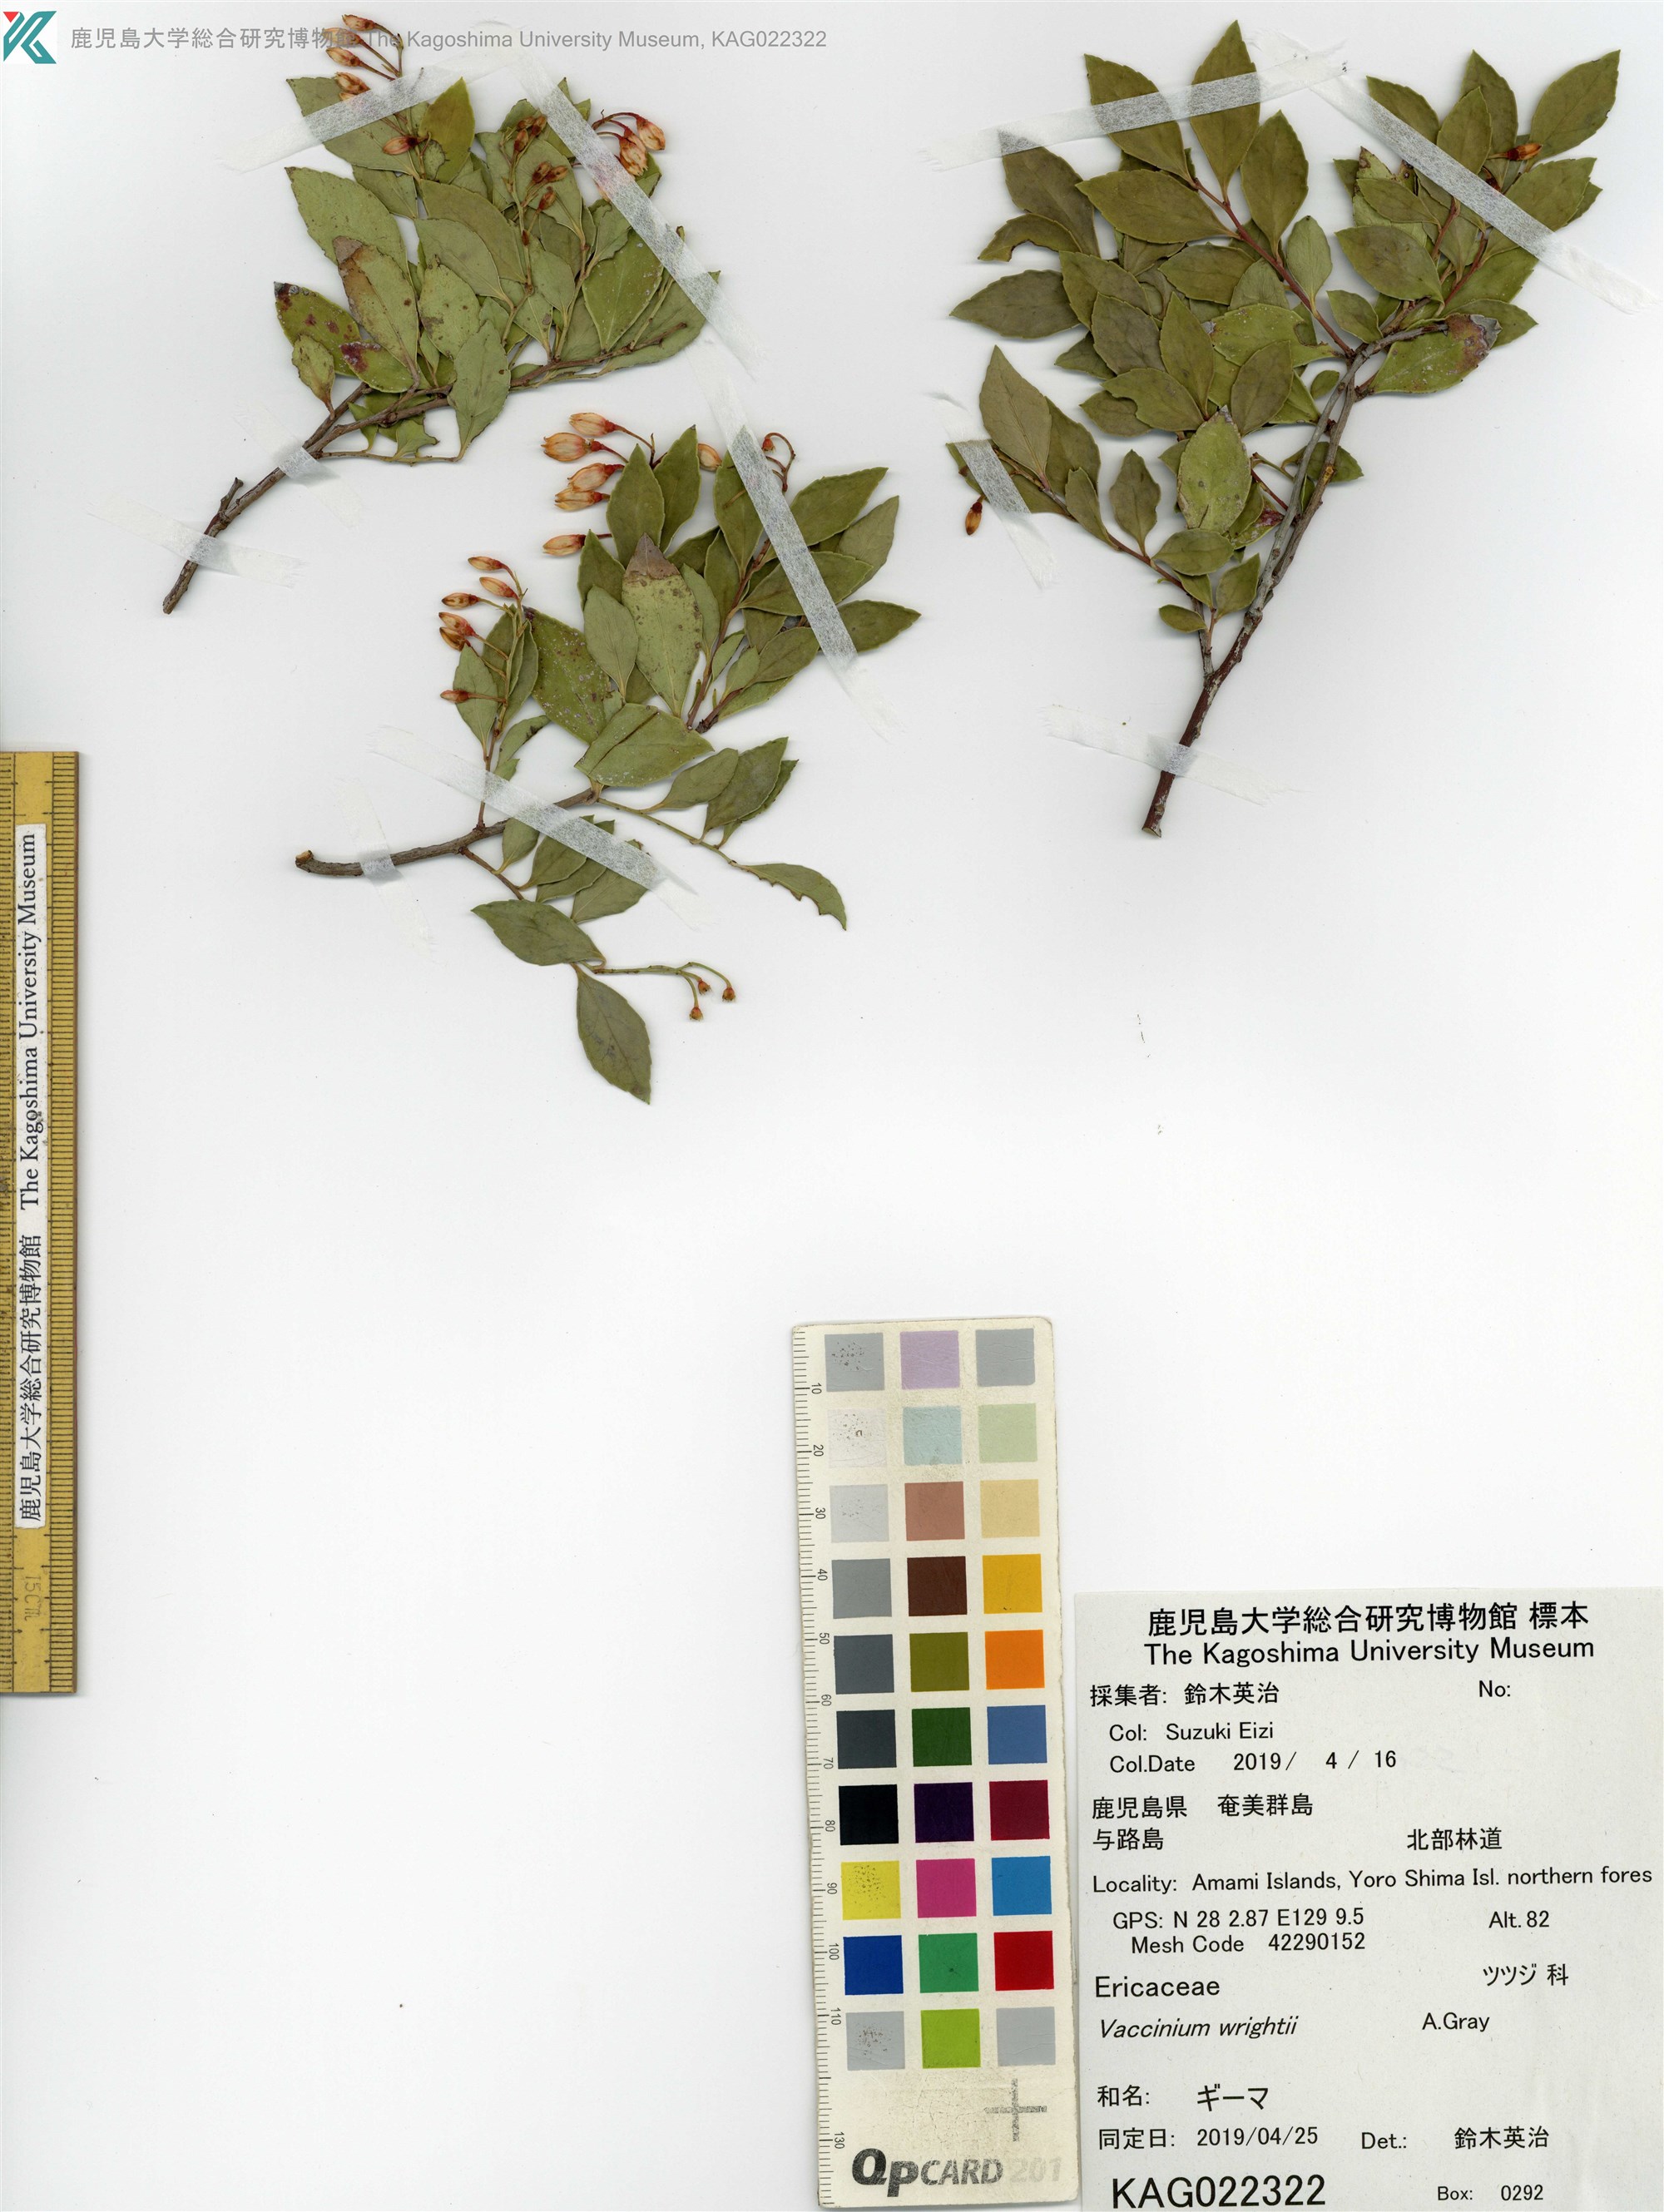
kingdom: Plantae
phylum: Tracheophyta
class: Magnoliopsida
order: Ericales
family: Ericaceae
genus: Vaccinium
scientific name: Vaccinium wrightii
